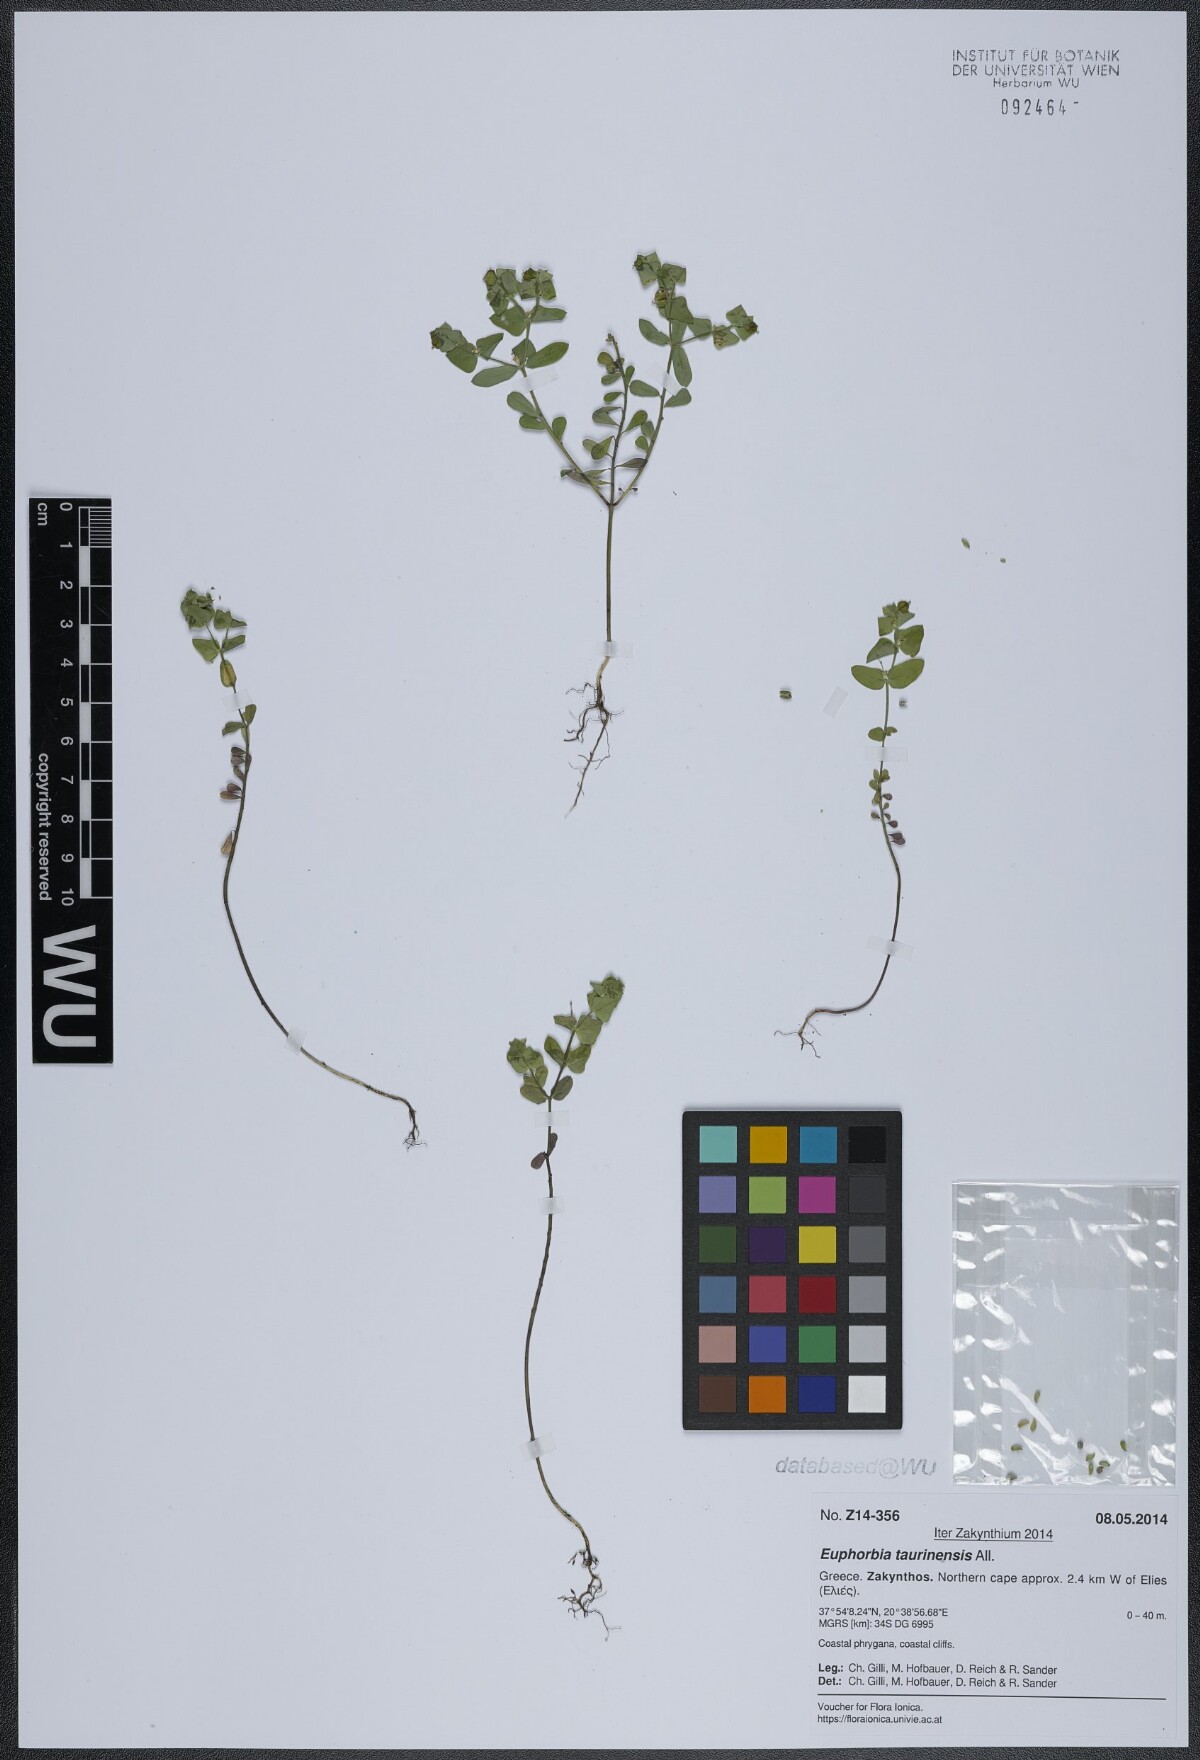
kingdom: Plantae
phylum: Tracheophyta
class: Magnoliopsida
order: Malpighiales
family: Euphorbiaceae
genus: Euphorbia
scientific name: Euphorbia taurinensis
